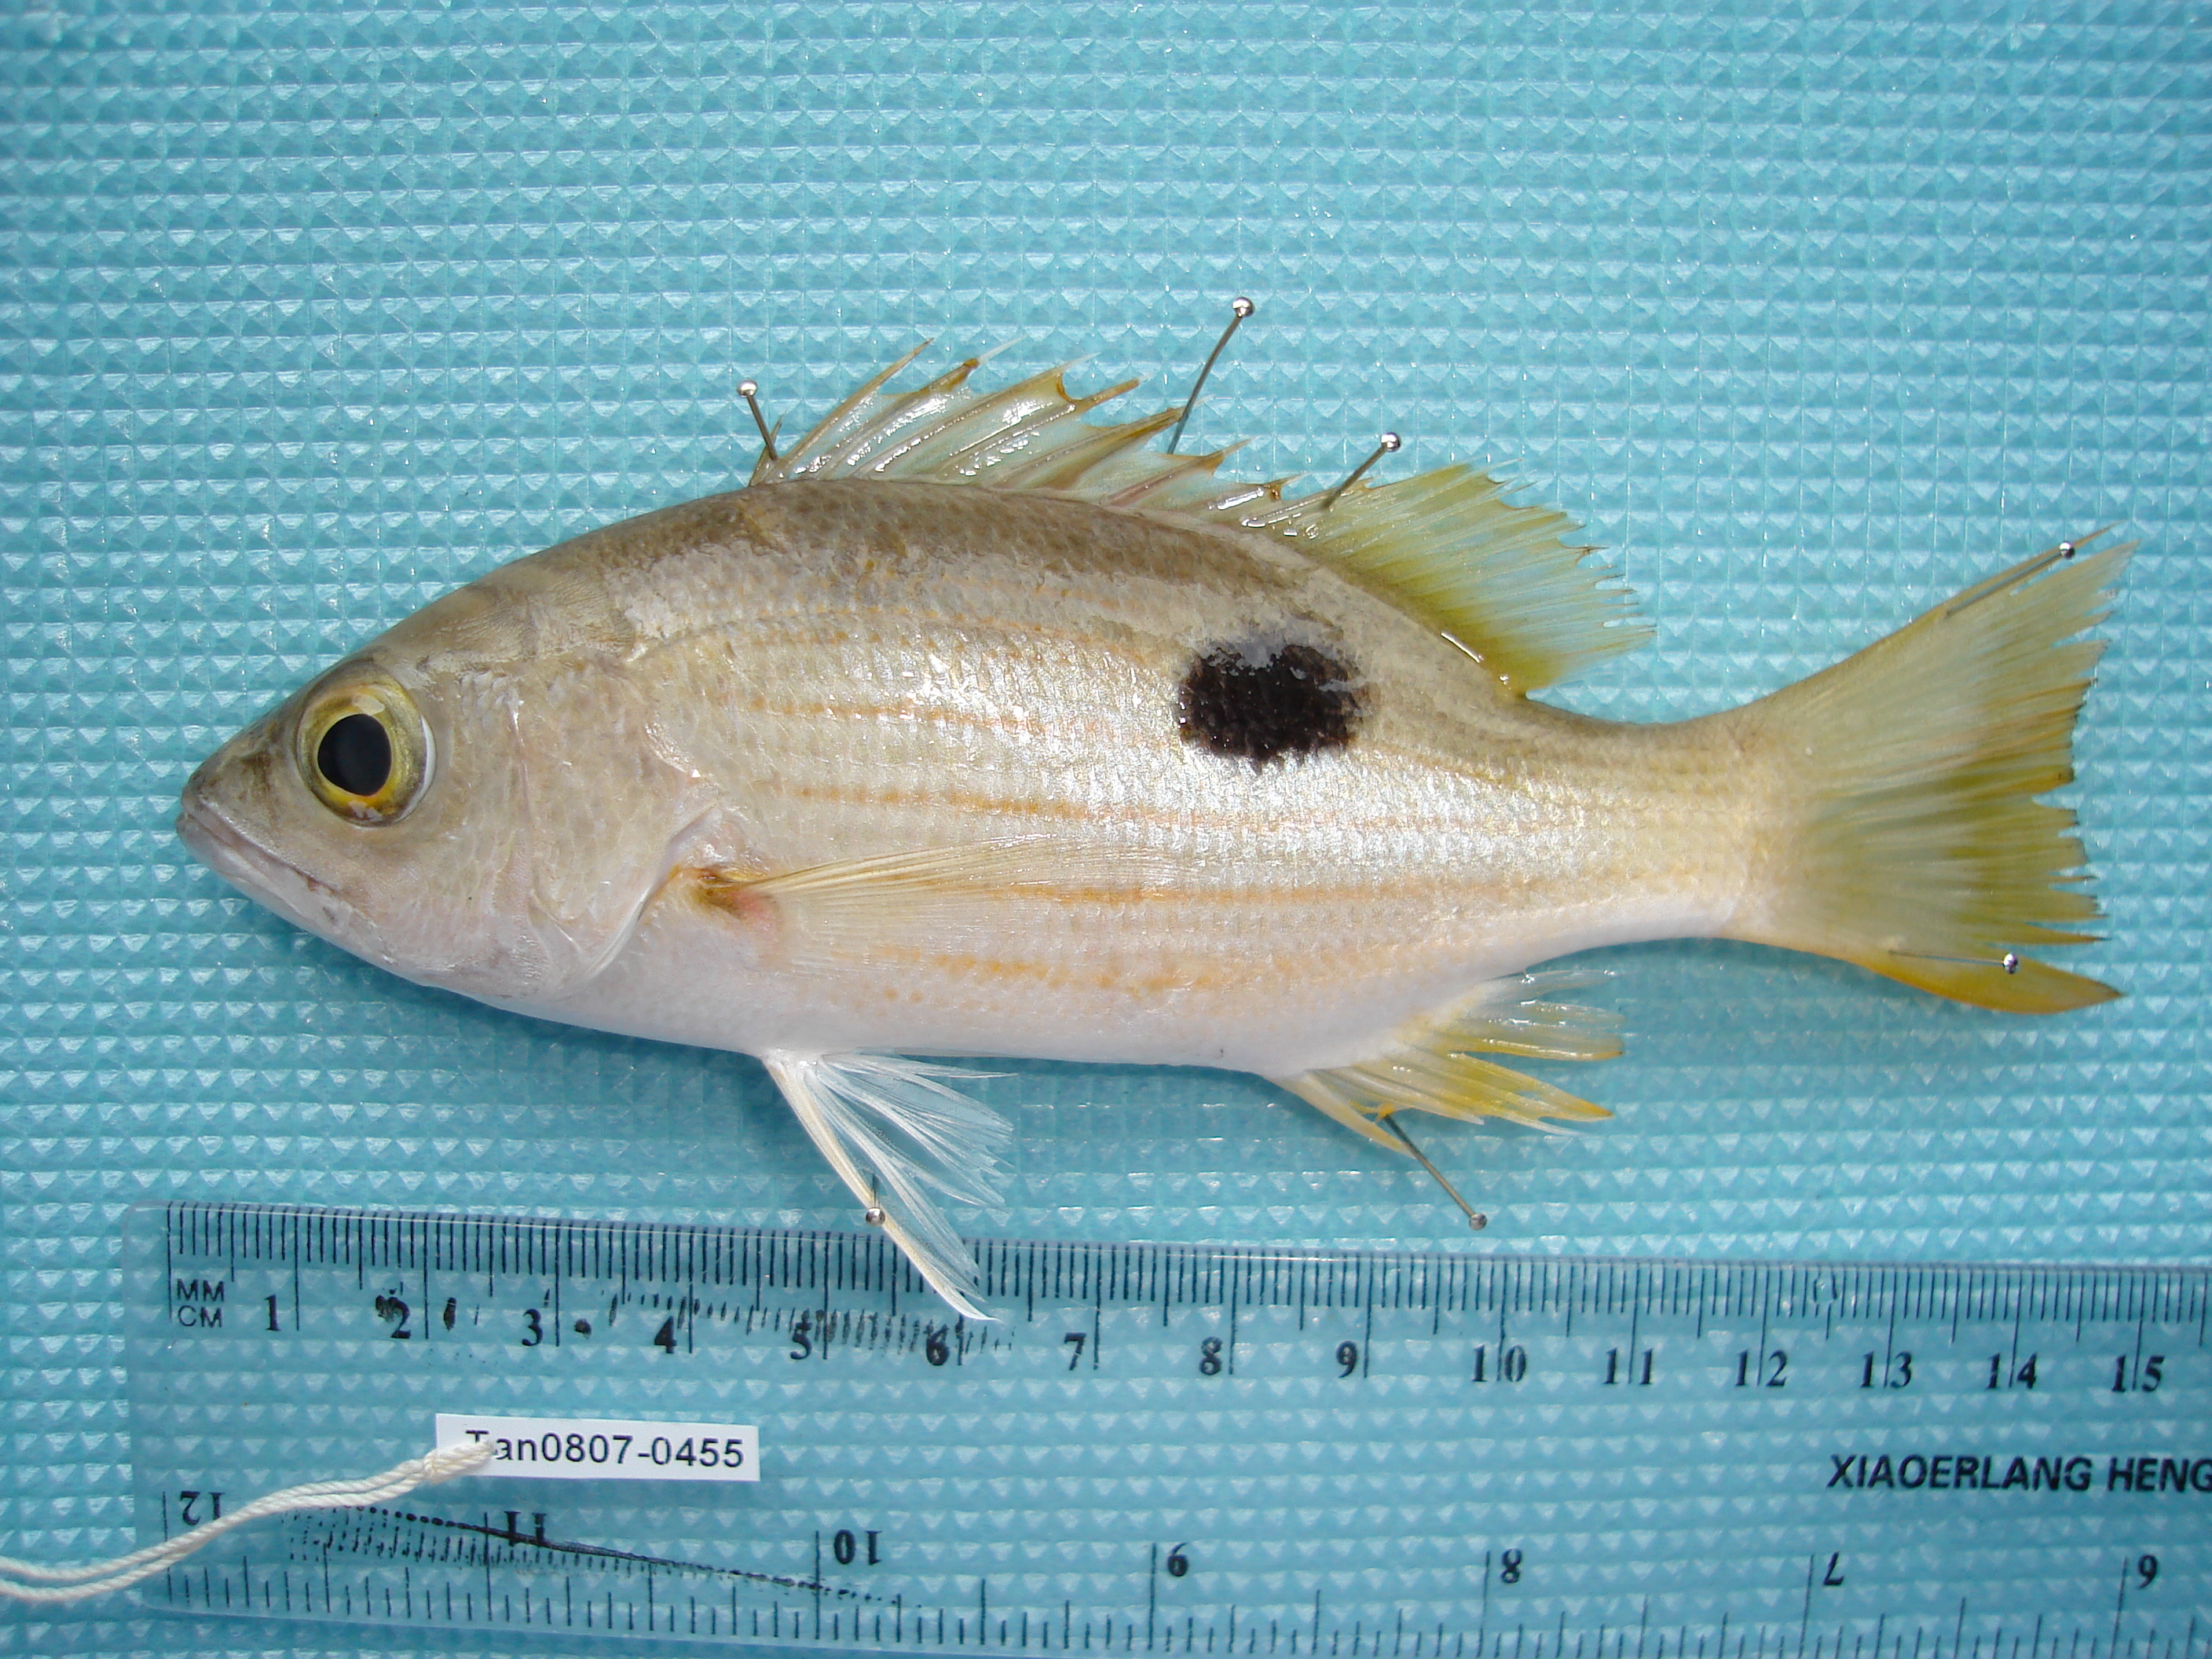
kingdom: Animalia
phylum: Chordata
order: Perciformes
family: Lutjanidae
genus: Lutjanus
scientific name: Lutjanus ehrenbergii
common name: Blackspot snapper
